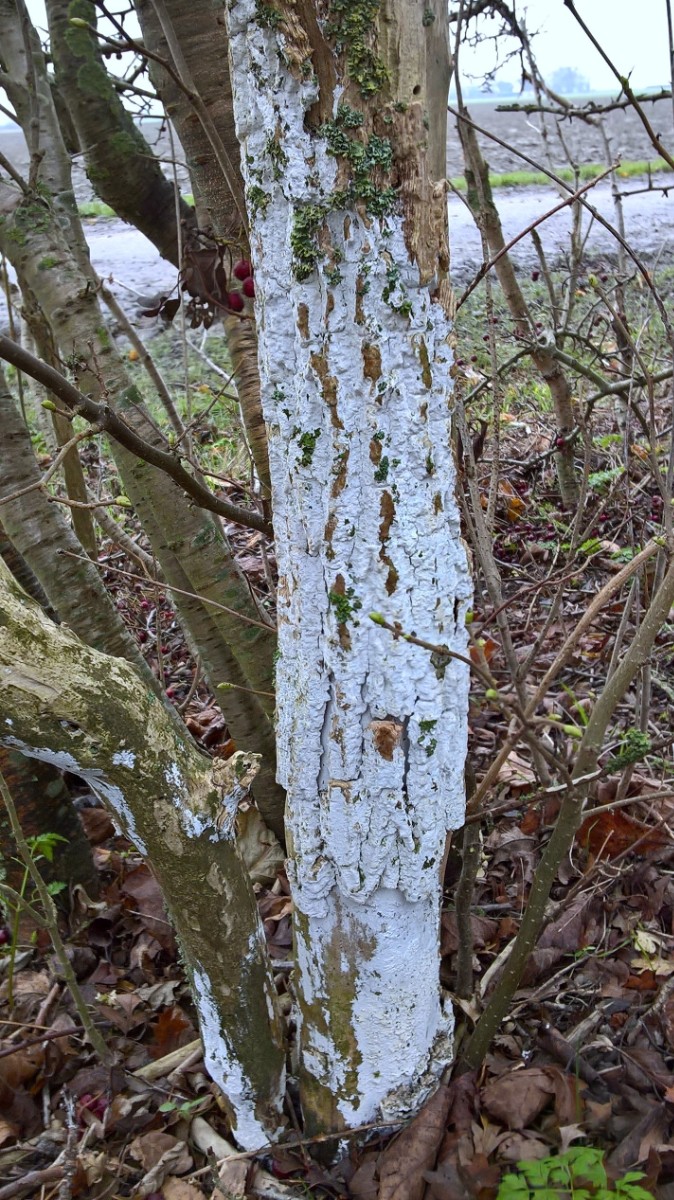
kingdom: Fungi
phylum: Basidiomycota
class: Agaricomycetes
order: Corticiales
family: Corticiaceae
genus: Lyomyces
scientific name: Lyomyces sambuci
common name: almindelig hyldehinde
